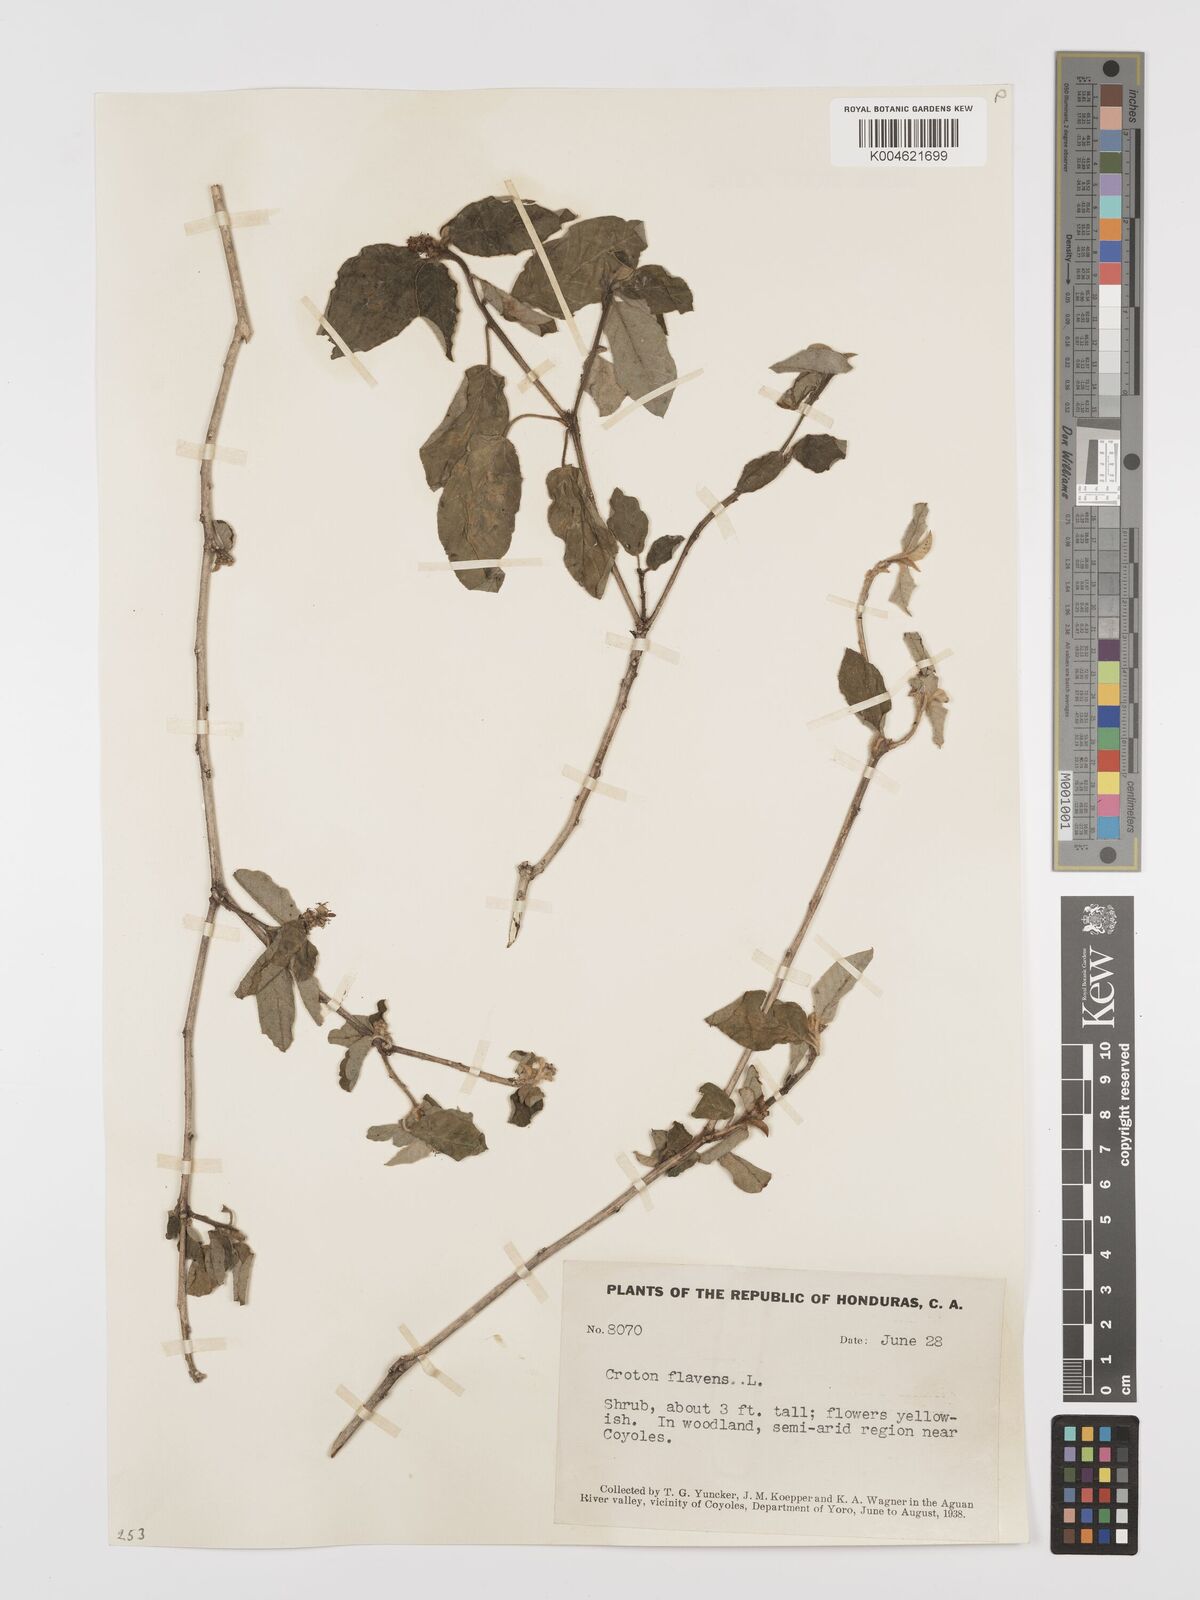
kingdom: Plantae
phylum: Tracheophyta
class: Magnoliopsida
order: Malpighiales
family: Euphorbiaceae
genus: Croton
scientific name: Croton flavens
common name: Yellow balsam
